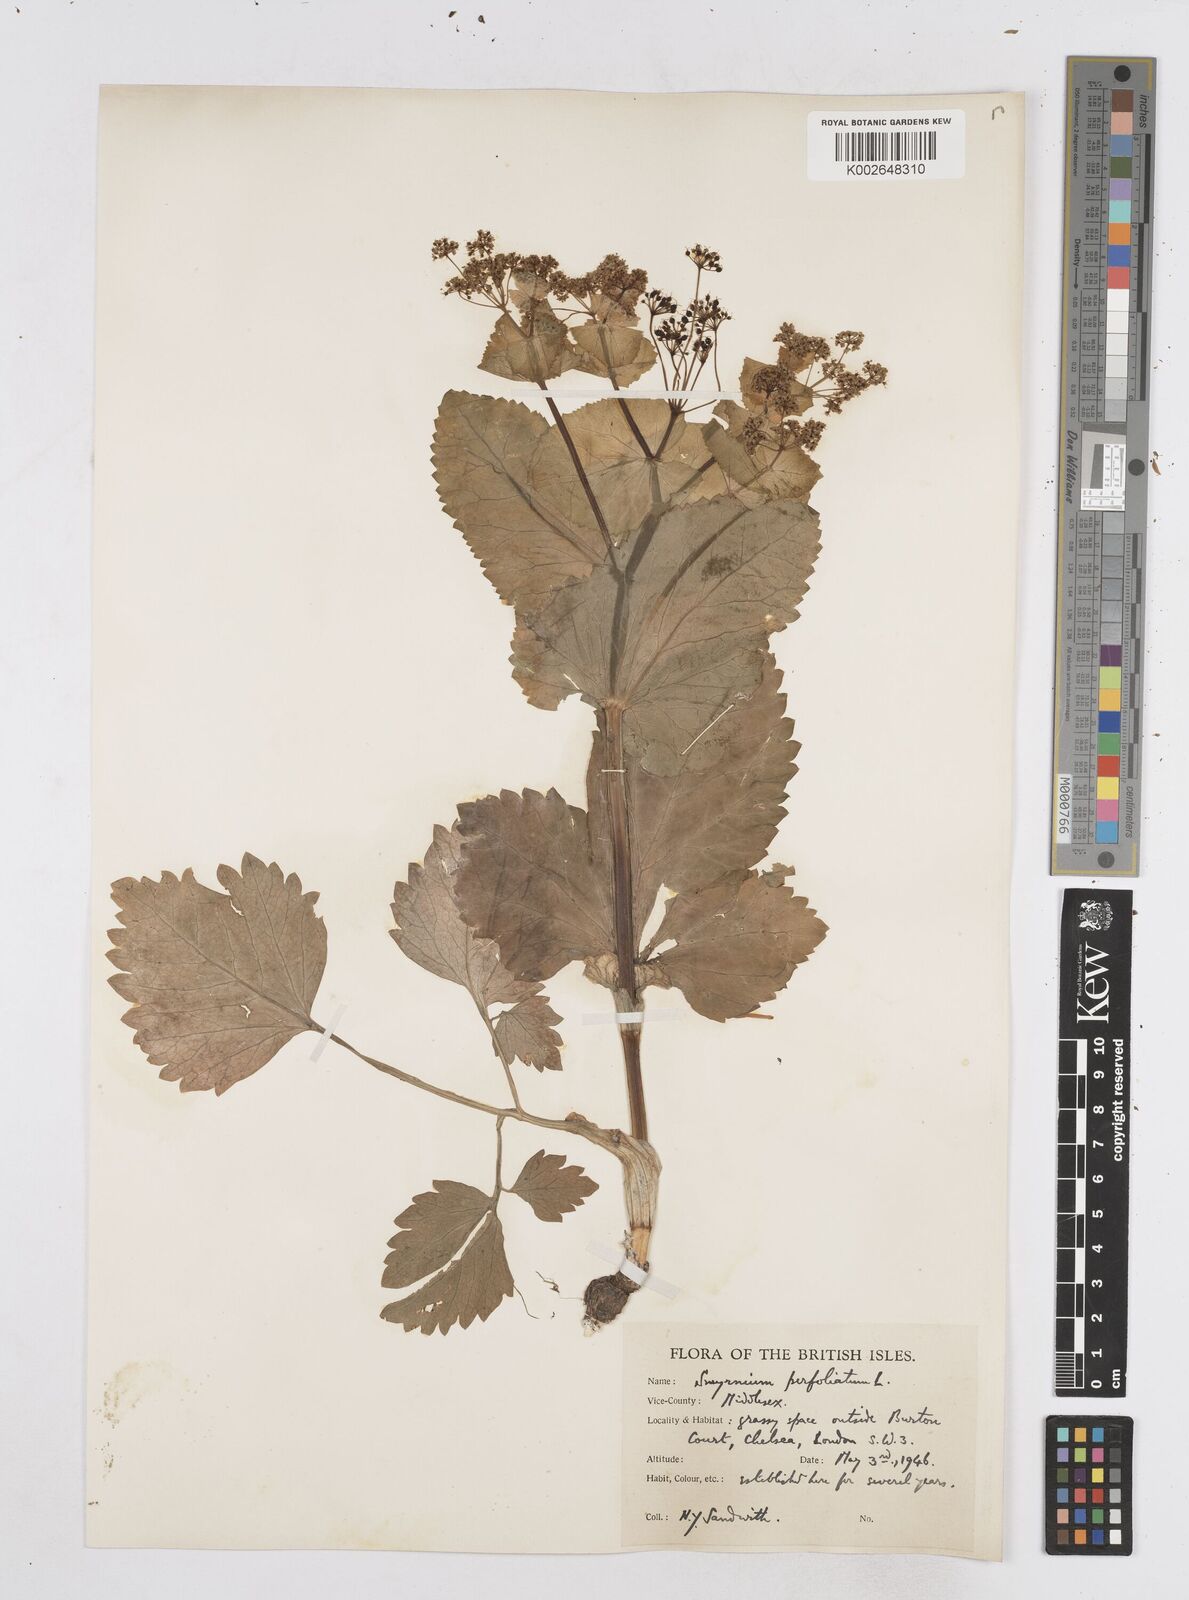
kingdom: Plantae
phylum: Tracheophyta
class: Magnoliopsida
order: Apiales
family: Apiaceae
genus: Smyrnium
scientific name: Smyrnium perfoliatum
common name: Perfoliate alexanders
